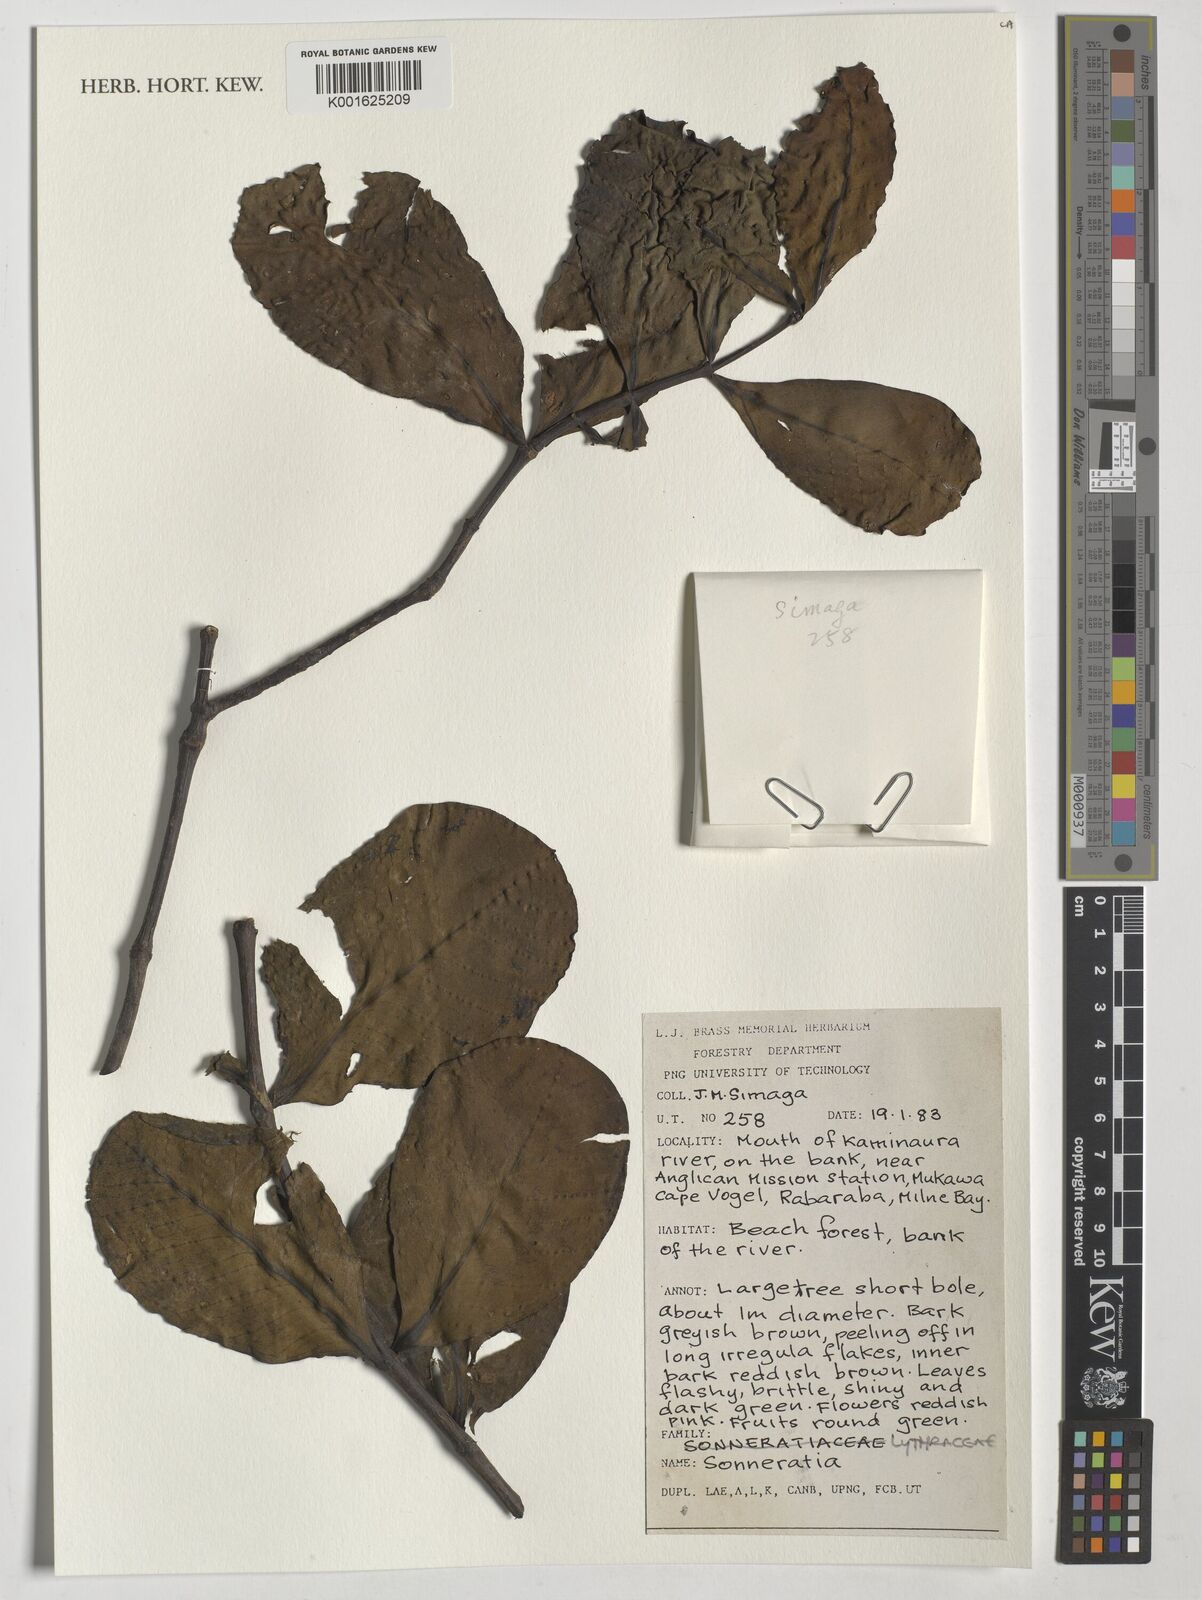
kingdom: Plantae
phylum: Tracheophyta
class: Magnoliopsida
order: Myrtales
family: Lythraceae
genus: Sonneratia
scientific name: Sonneratia
